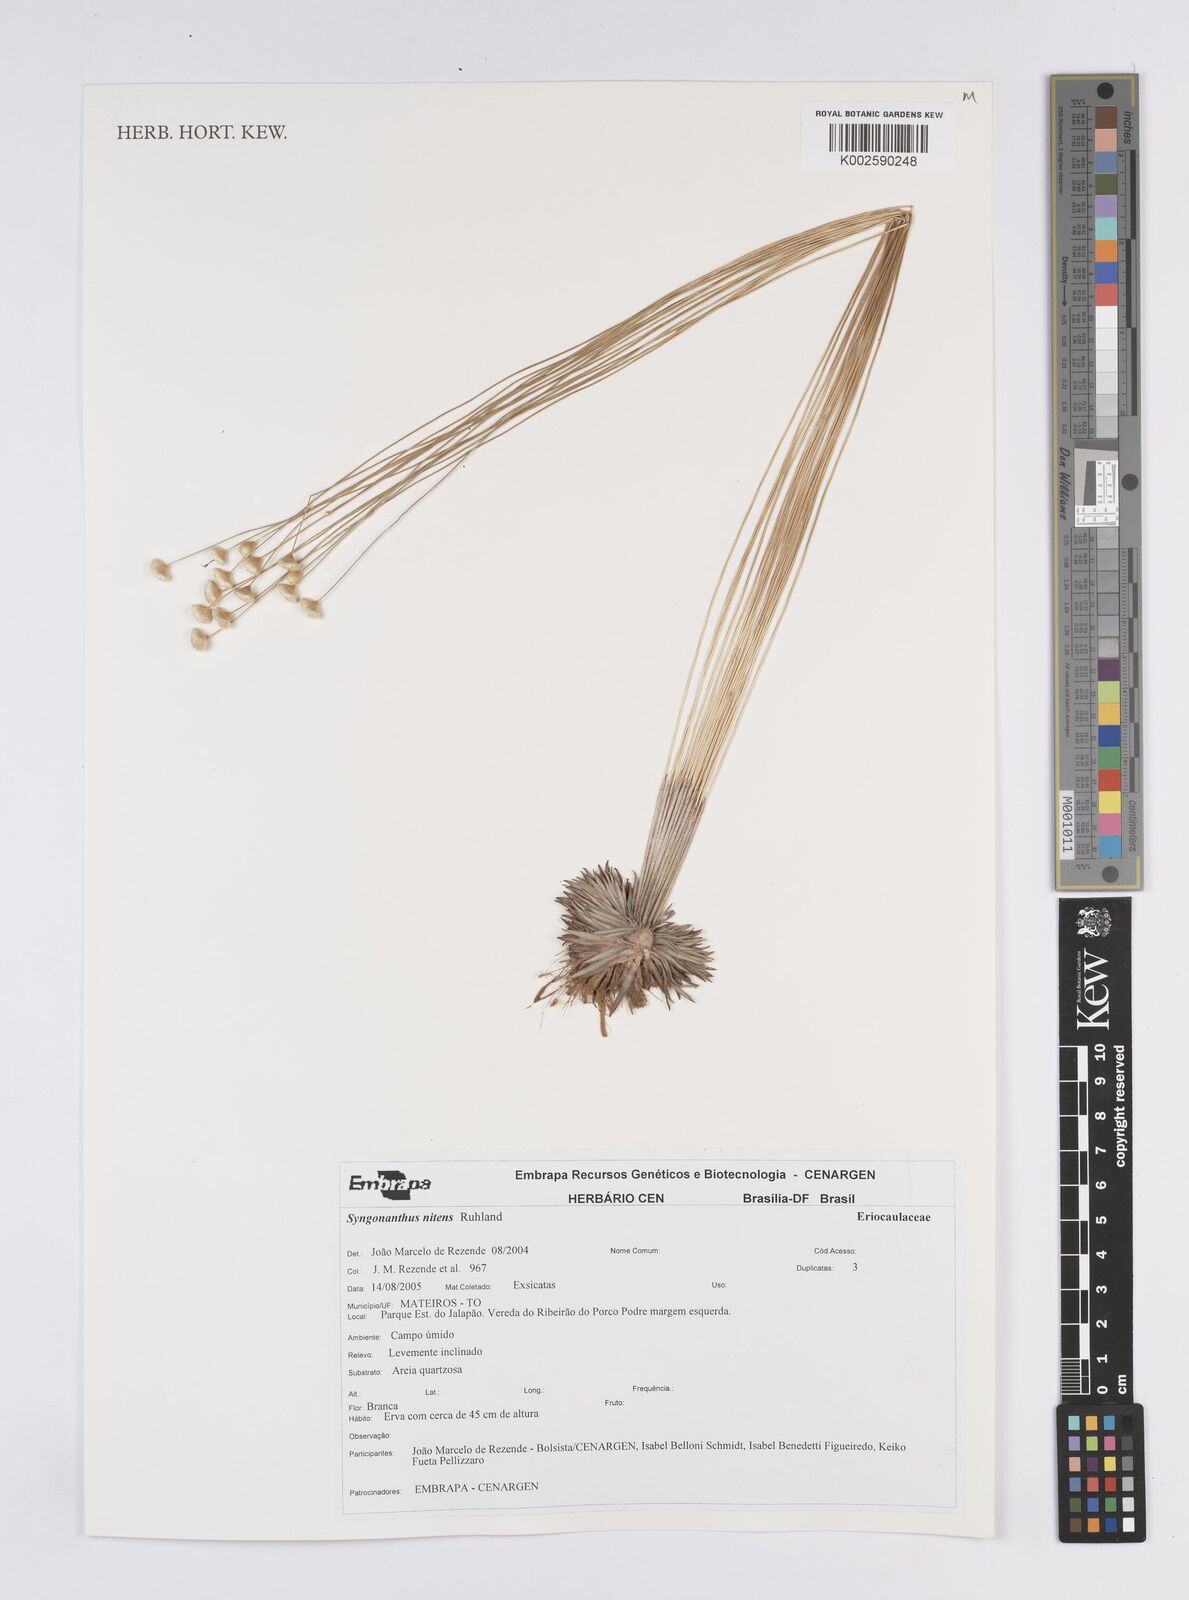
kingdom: Plantae
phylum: Tracheophyta
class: Liliopsida
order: Poales
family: Eriocaulaceae
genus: Syngonanthus
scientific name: Syngonanthus nitens
